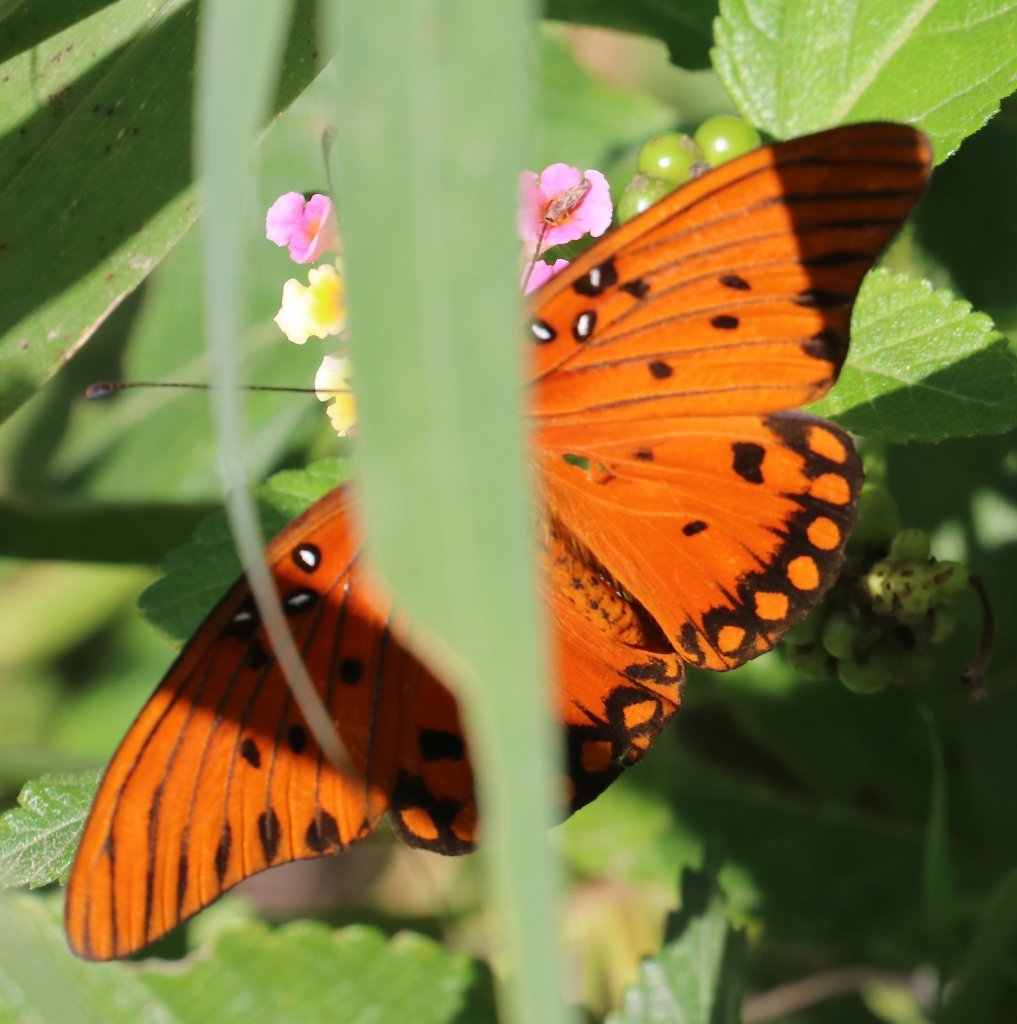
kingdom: Animalia
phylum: Arthropoda
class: Insecta
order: Lepidoptera
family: Nymphalidae
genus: Dione
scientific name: Dione vanillae
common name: Gulf Fritillary
